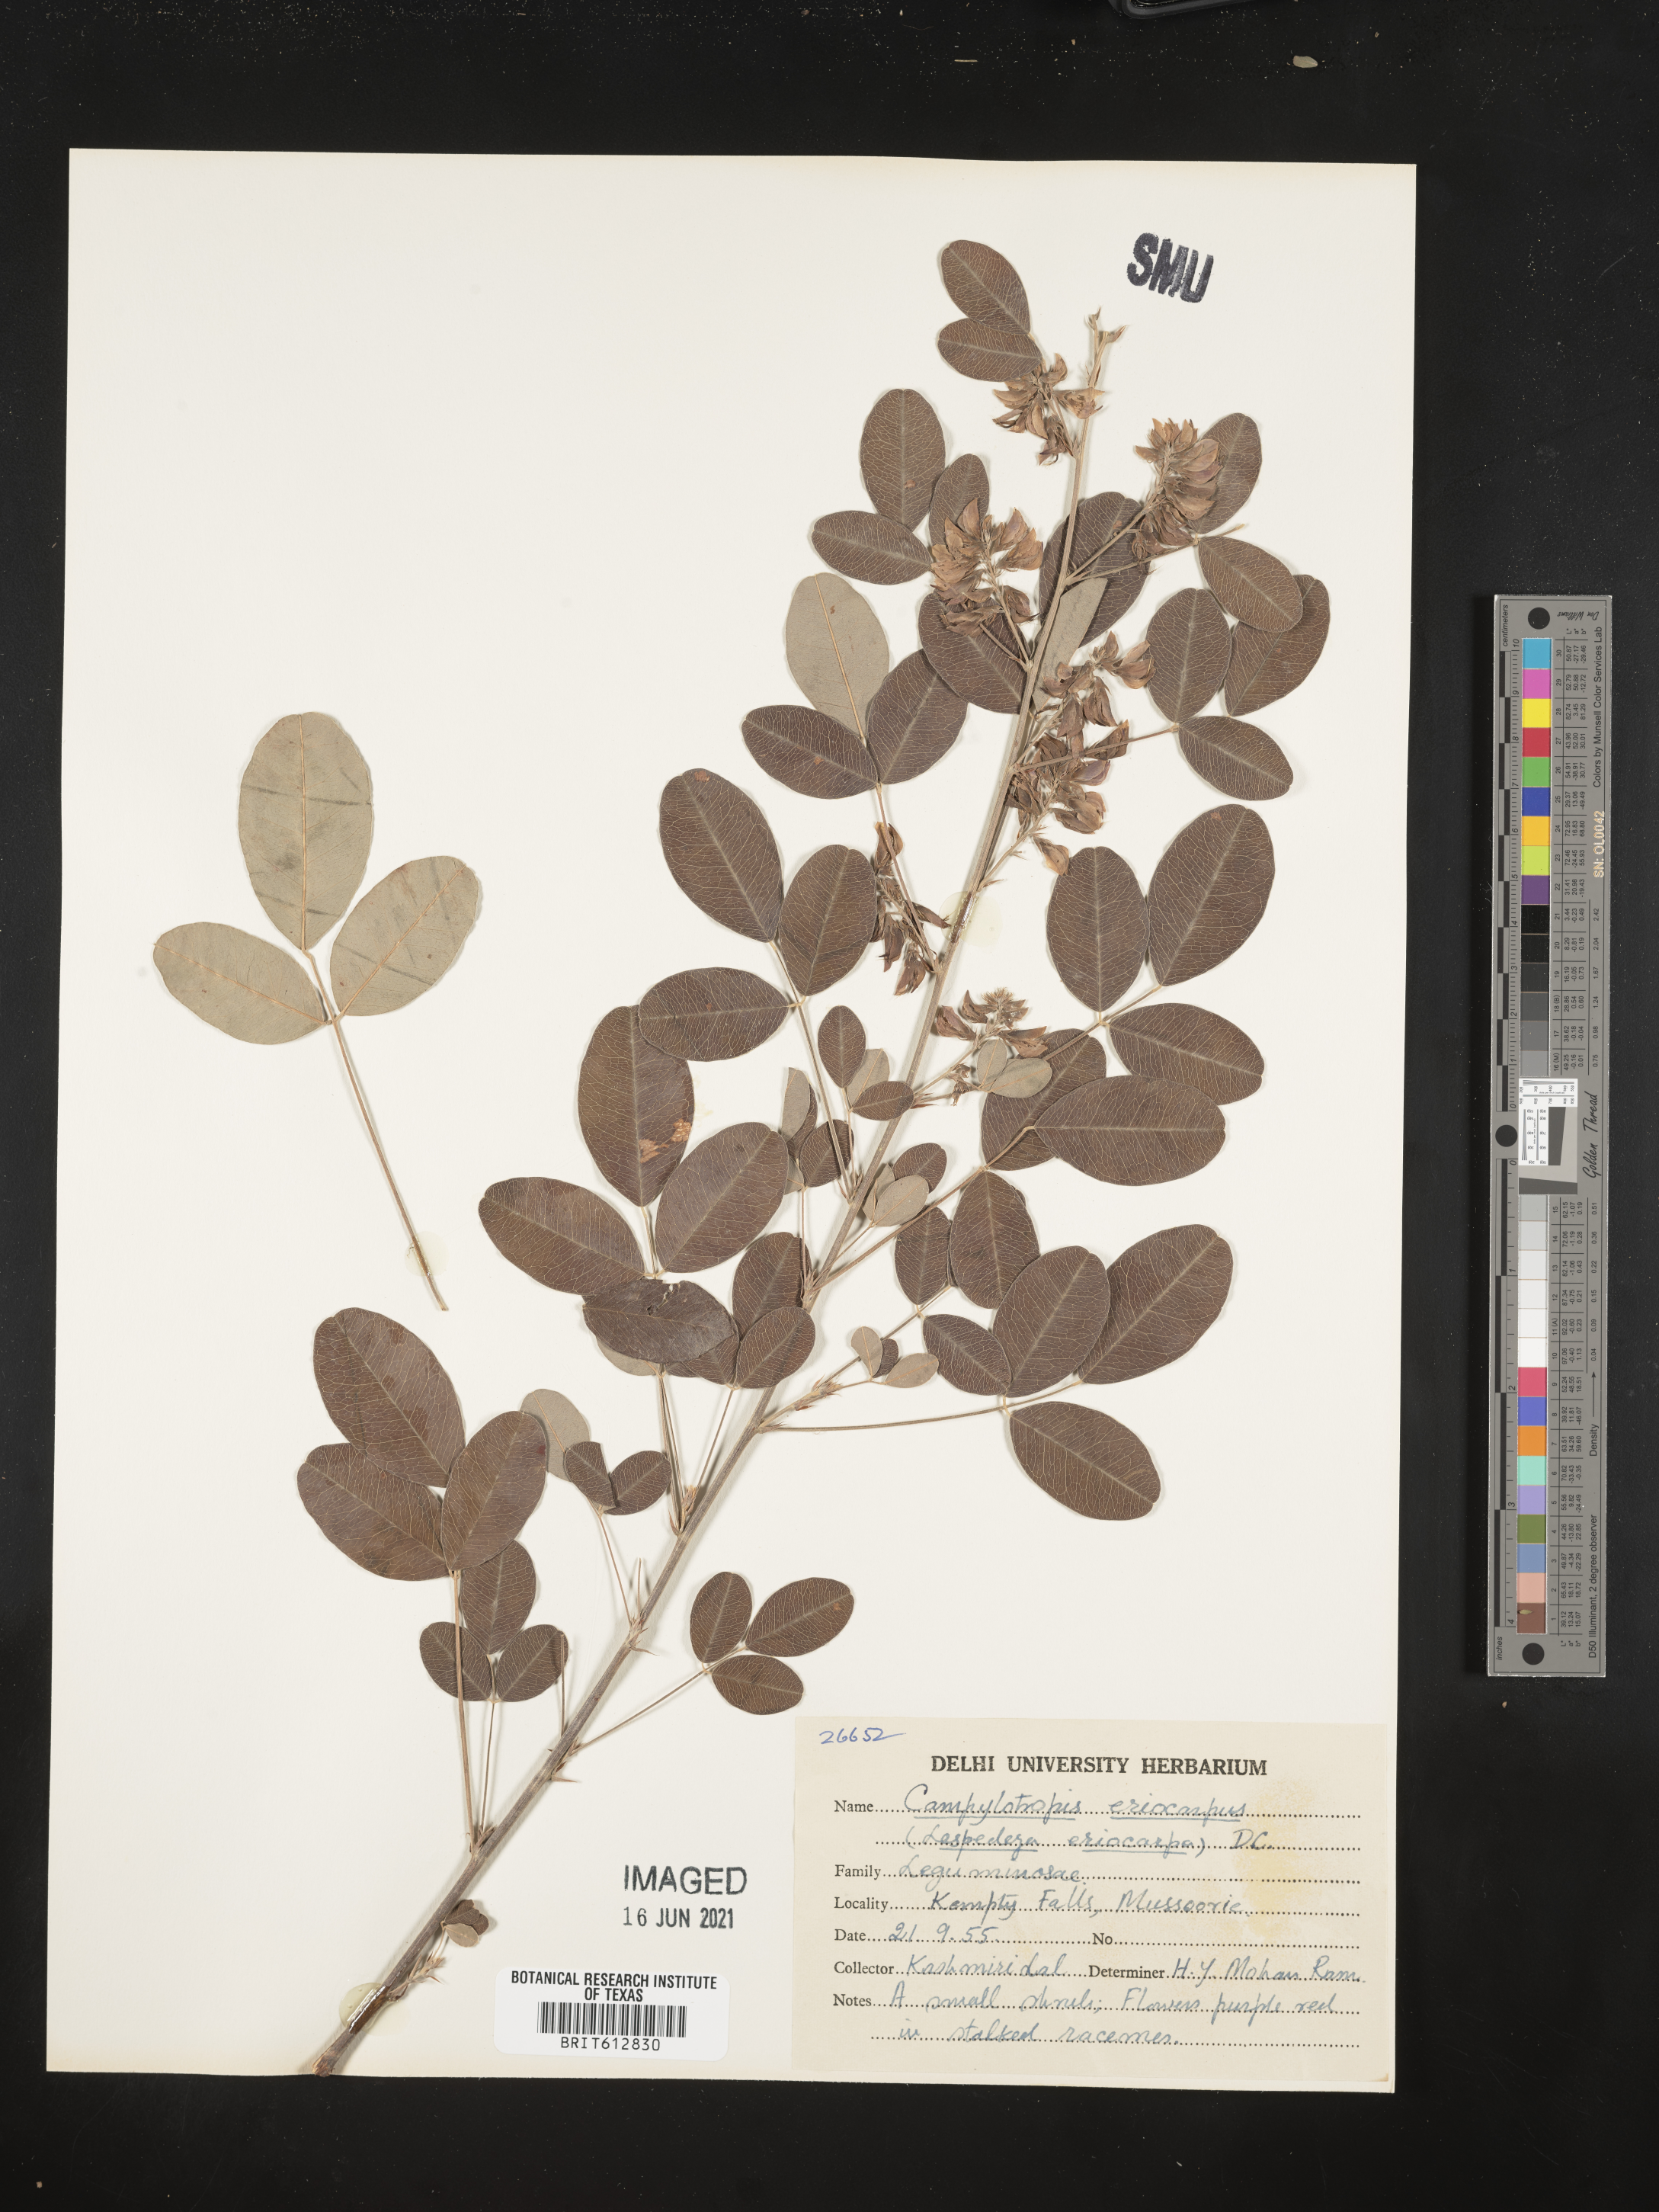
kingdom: Plantae
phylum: Tracheophyta
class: Magnoliopsida
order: Fabales
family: Fabaceae
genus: Campylotropis
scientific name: Campylotropis speciosa
